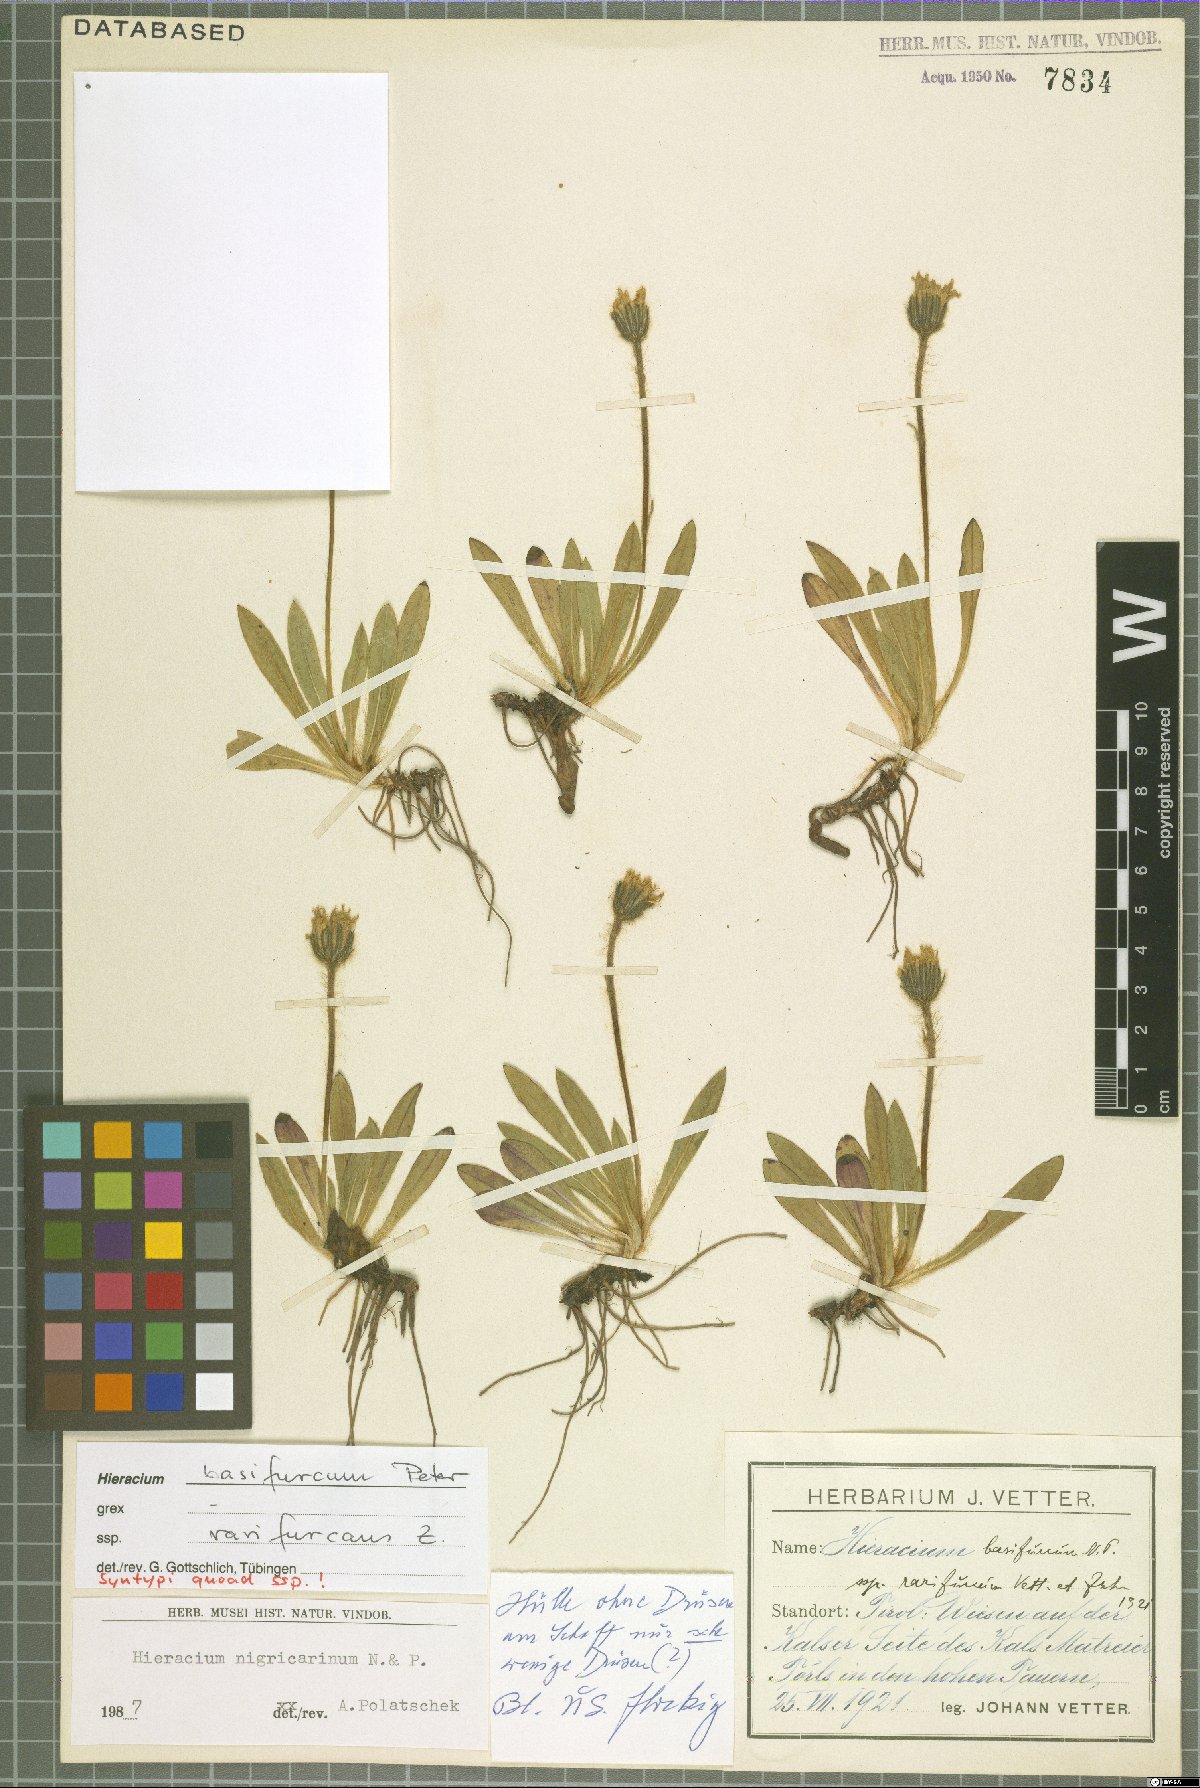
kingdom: Plantae
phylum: Tracheophyta
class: Magnoliopsida
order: Asterales
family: Asteraceae
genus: Pilosella
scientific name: Pilosella lathraea
